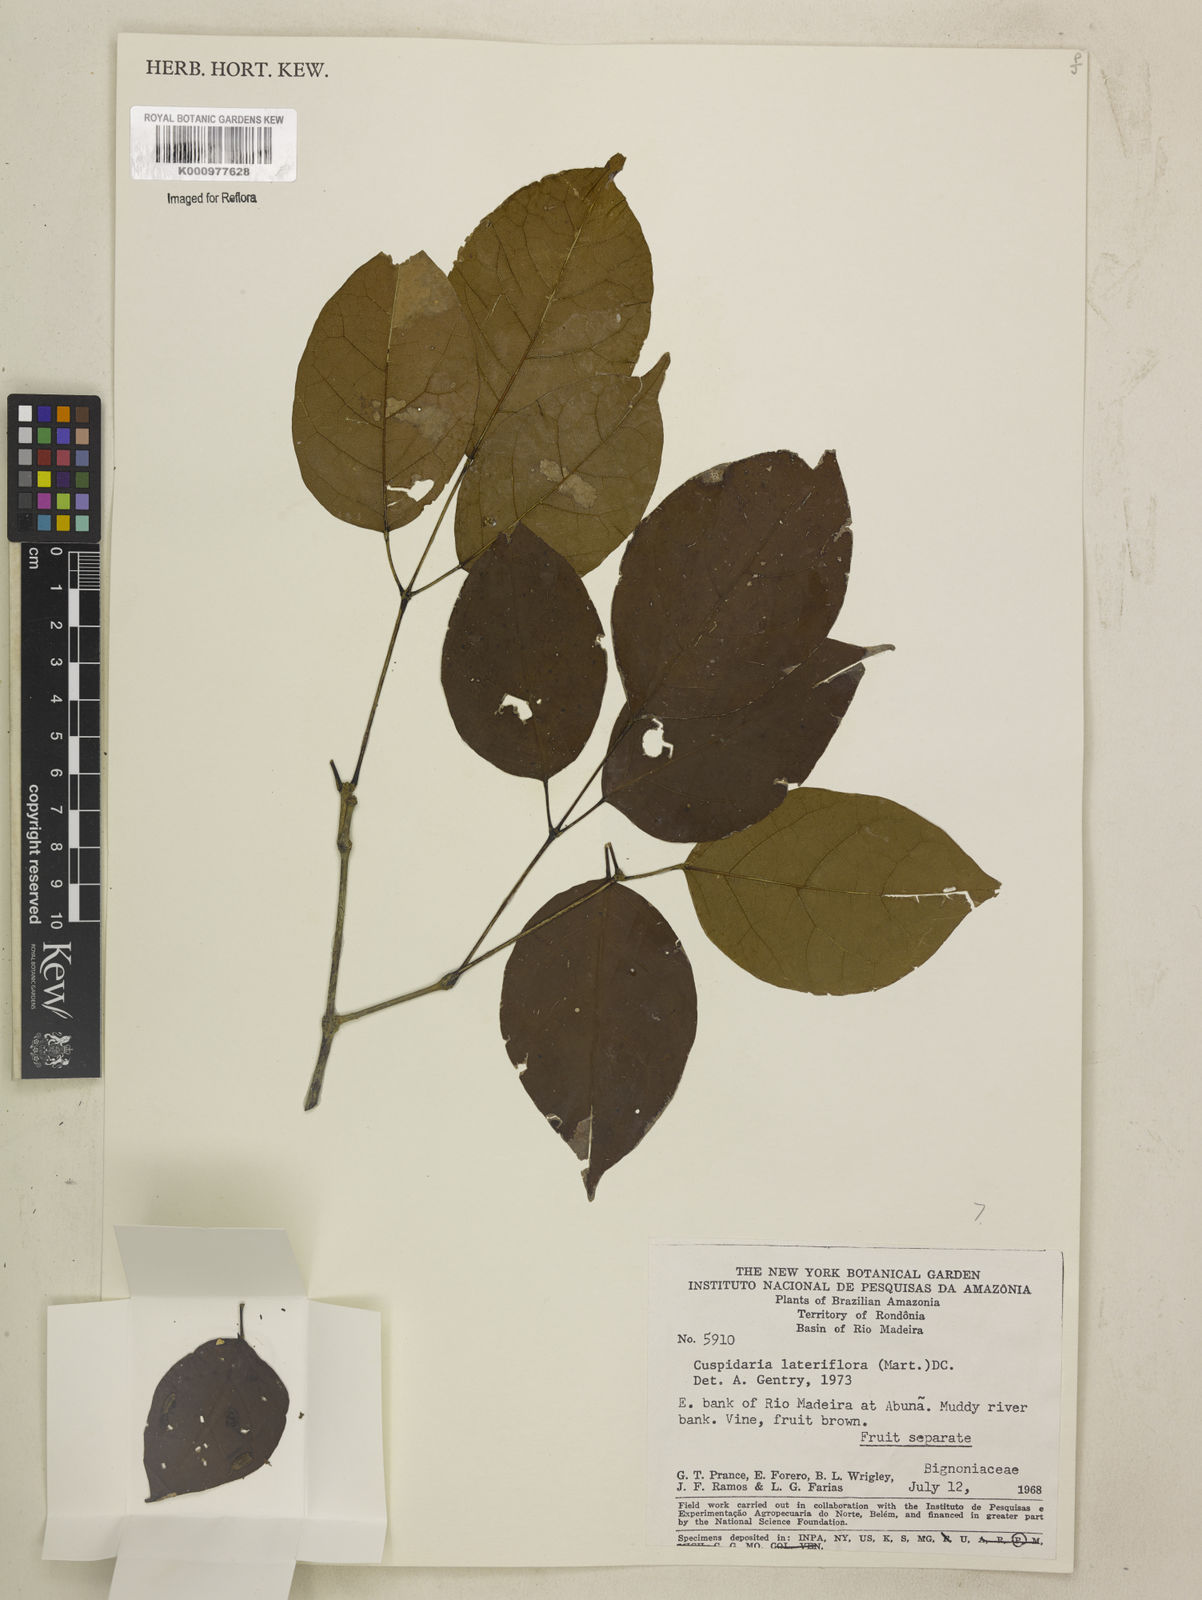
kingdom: Plantae
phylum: Tracheophyta
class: Magnoliopsida
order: Lamiales
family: Bignoniaceae
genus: Cuspidaria
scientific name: Cuspidaria lateriflora
